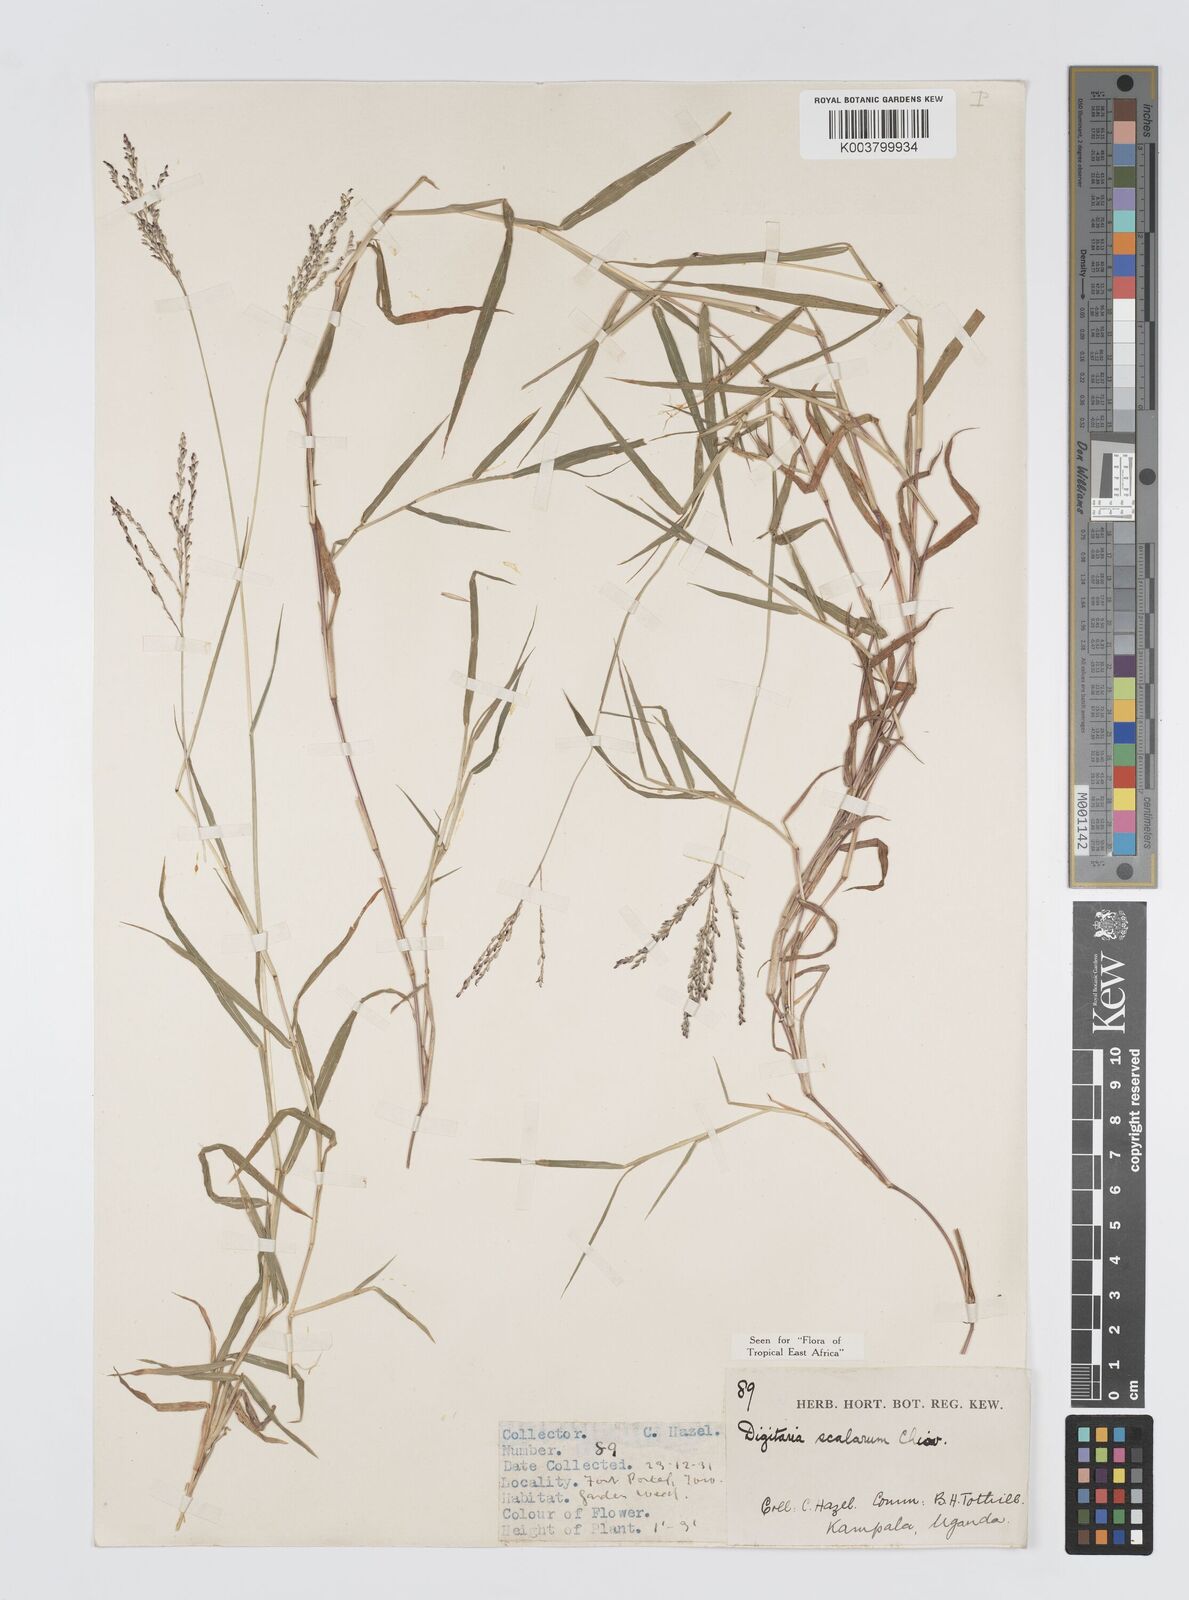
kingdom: Plantae
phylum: Tracheophyta
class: Liliopsida
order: Poales
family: Poaceae
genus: Digitaria
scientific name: Digitaria abyssinica
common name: African couchgrass
